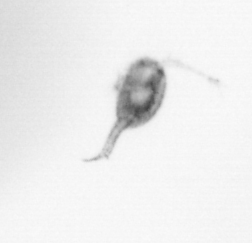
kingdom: Animalia
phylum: Arthropoda
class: Copepoda
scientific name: Copepoda
